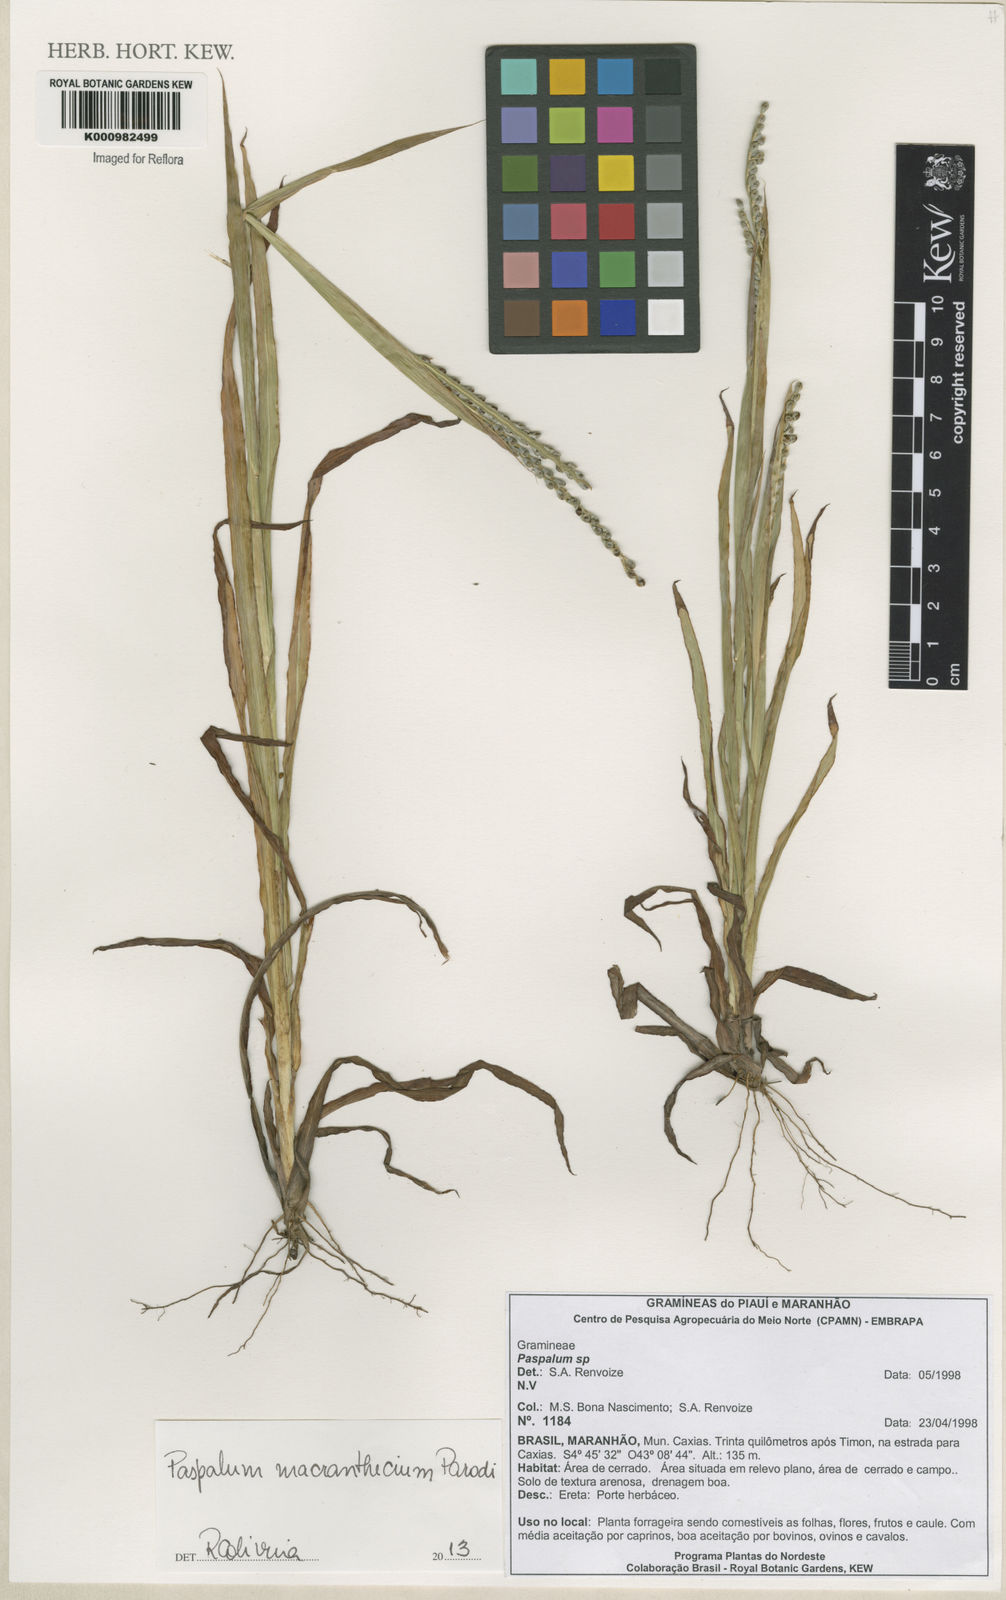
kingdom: Plantae
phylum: Tracheophyta
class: Liliopsida
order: Poales
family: Poaceae
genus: Paspalum
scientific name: Paspalum macranthecium
